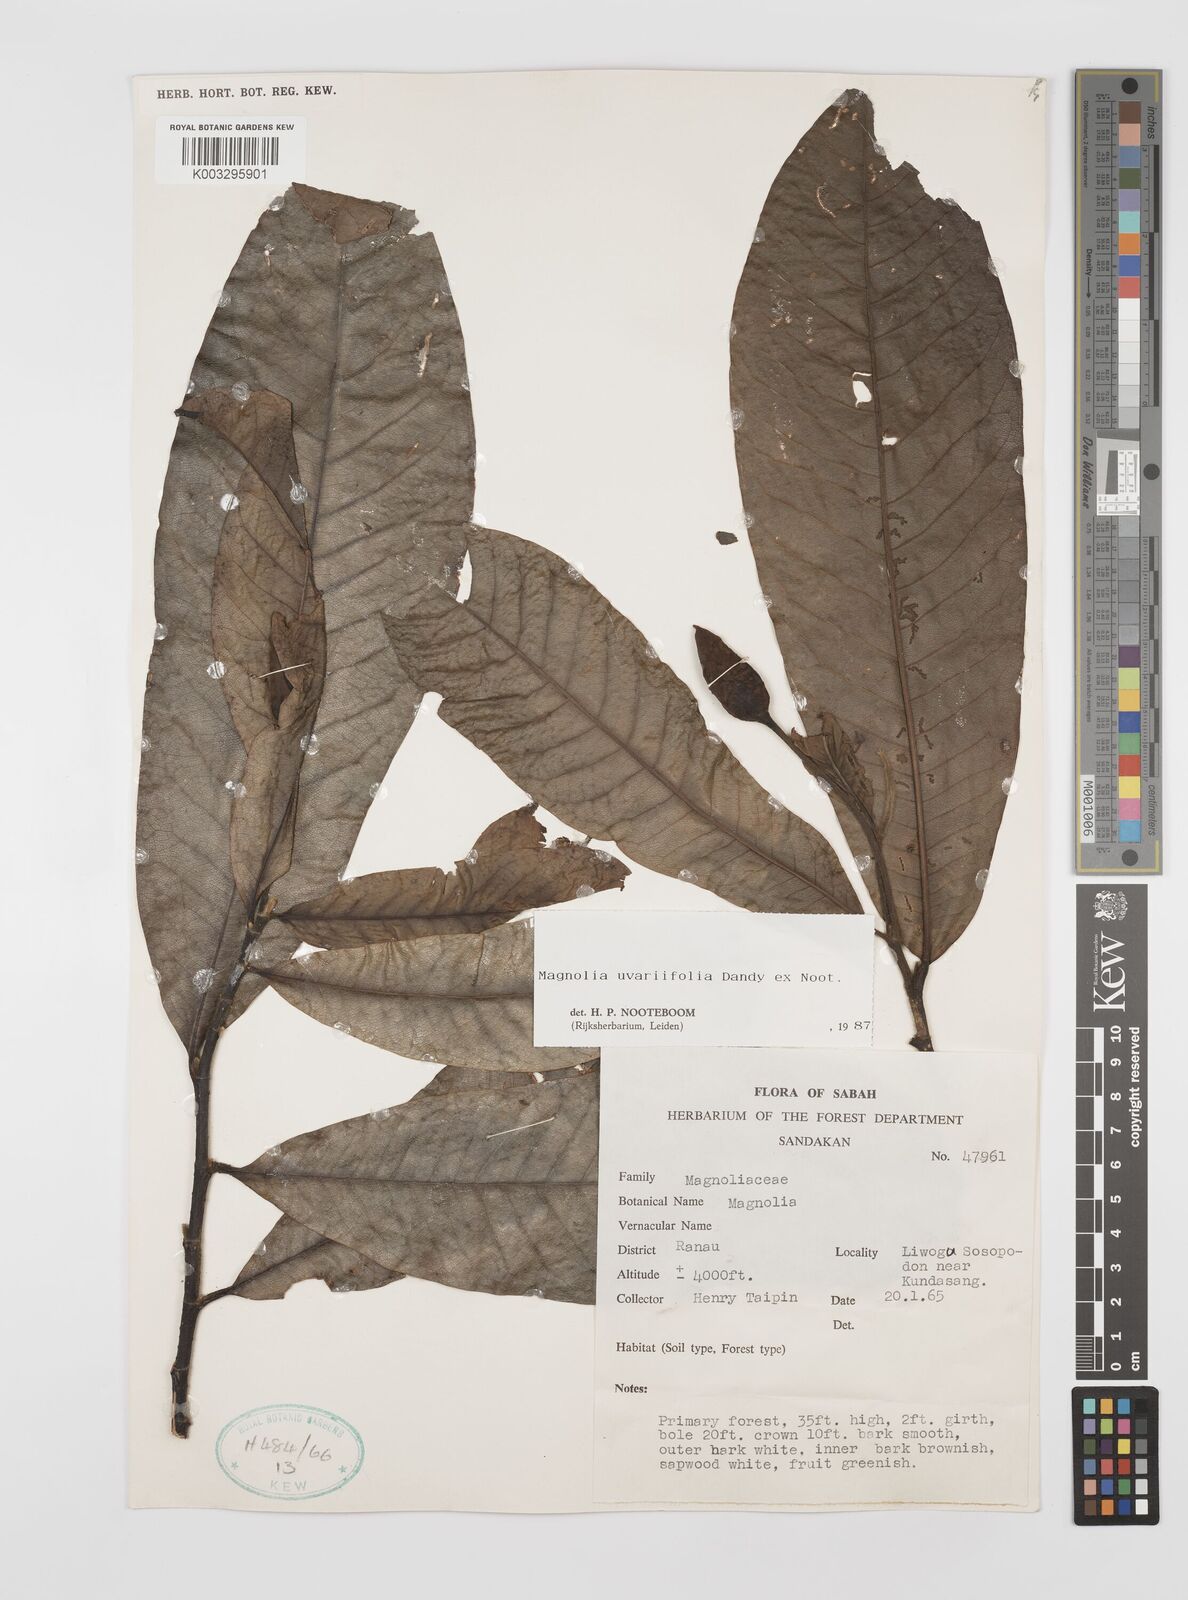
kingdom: Plantae
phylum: Tracheophyta
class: Magnoliopsida
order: Magnoliales
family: Magnoliaceae
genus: Magnolia
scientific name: Magnolia macklottii
